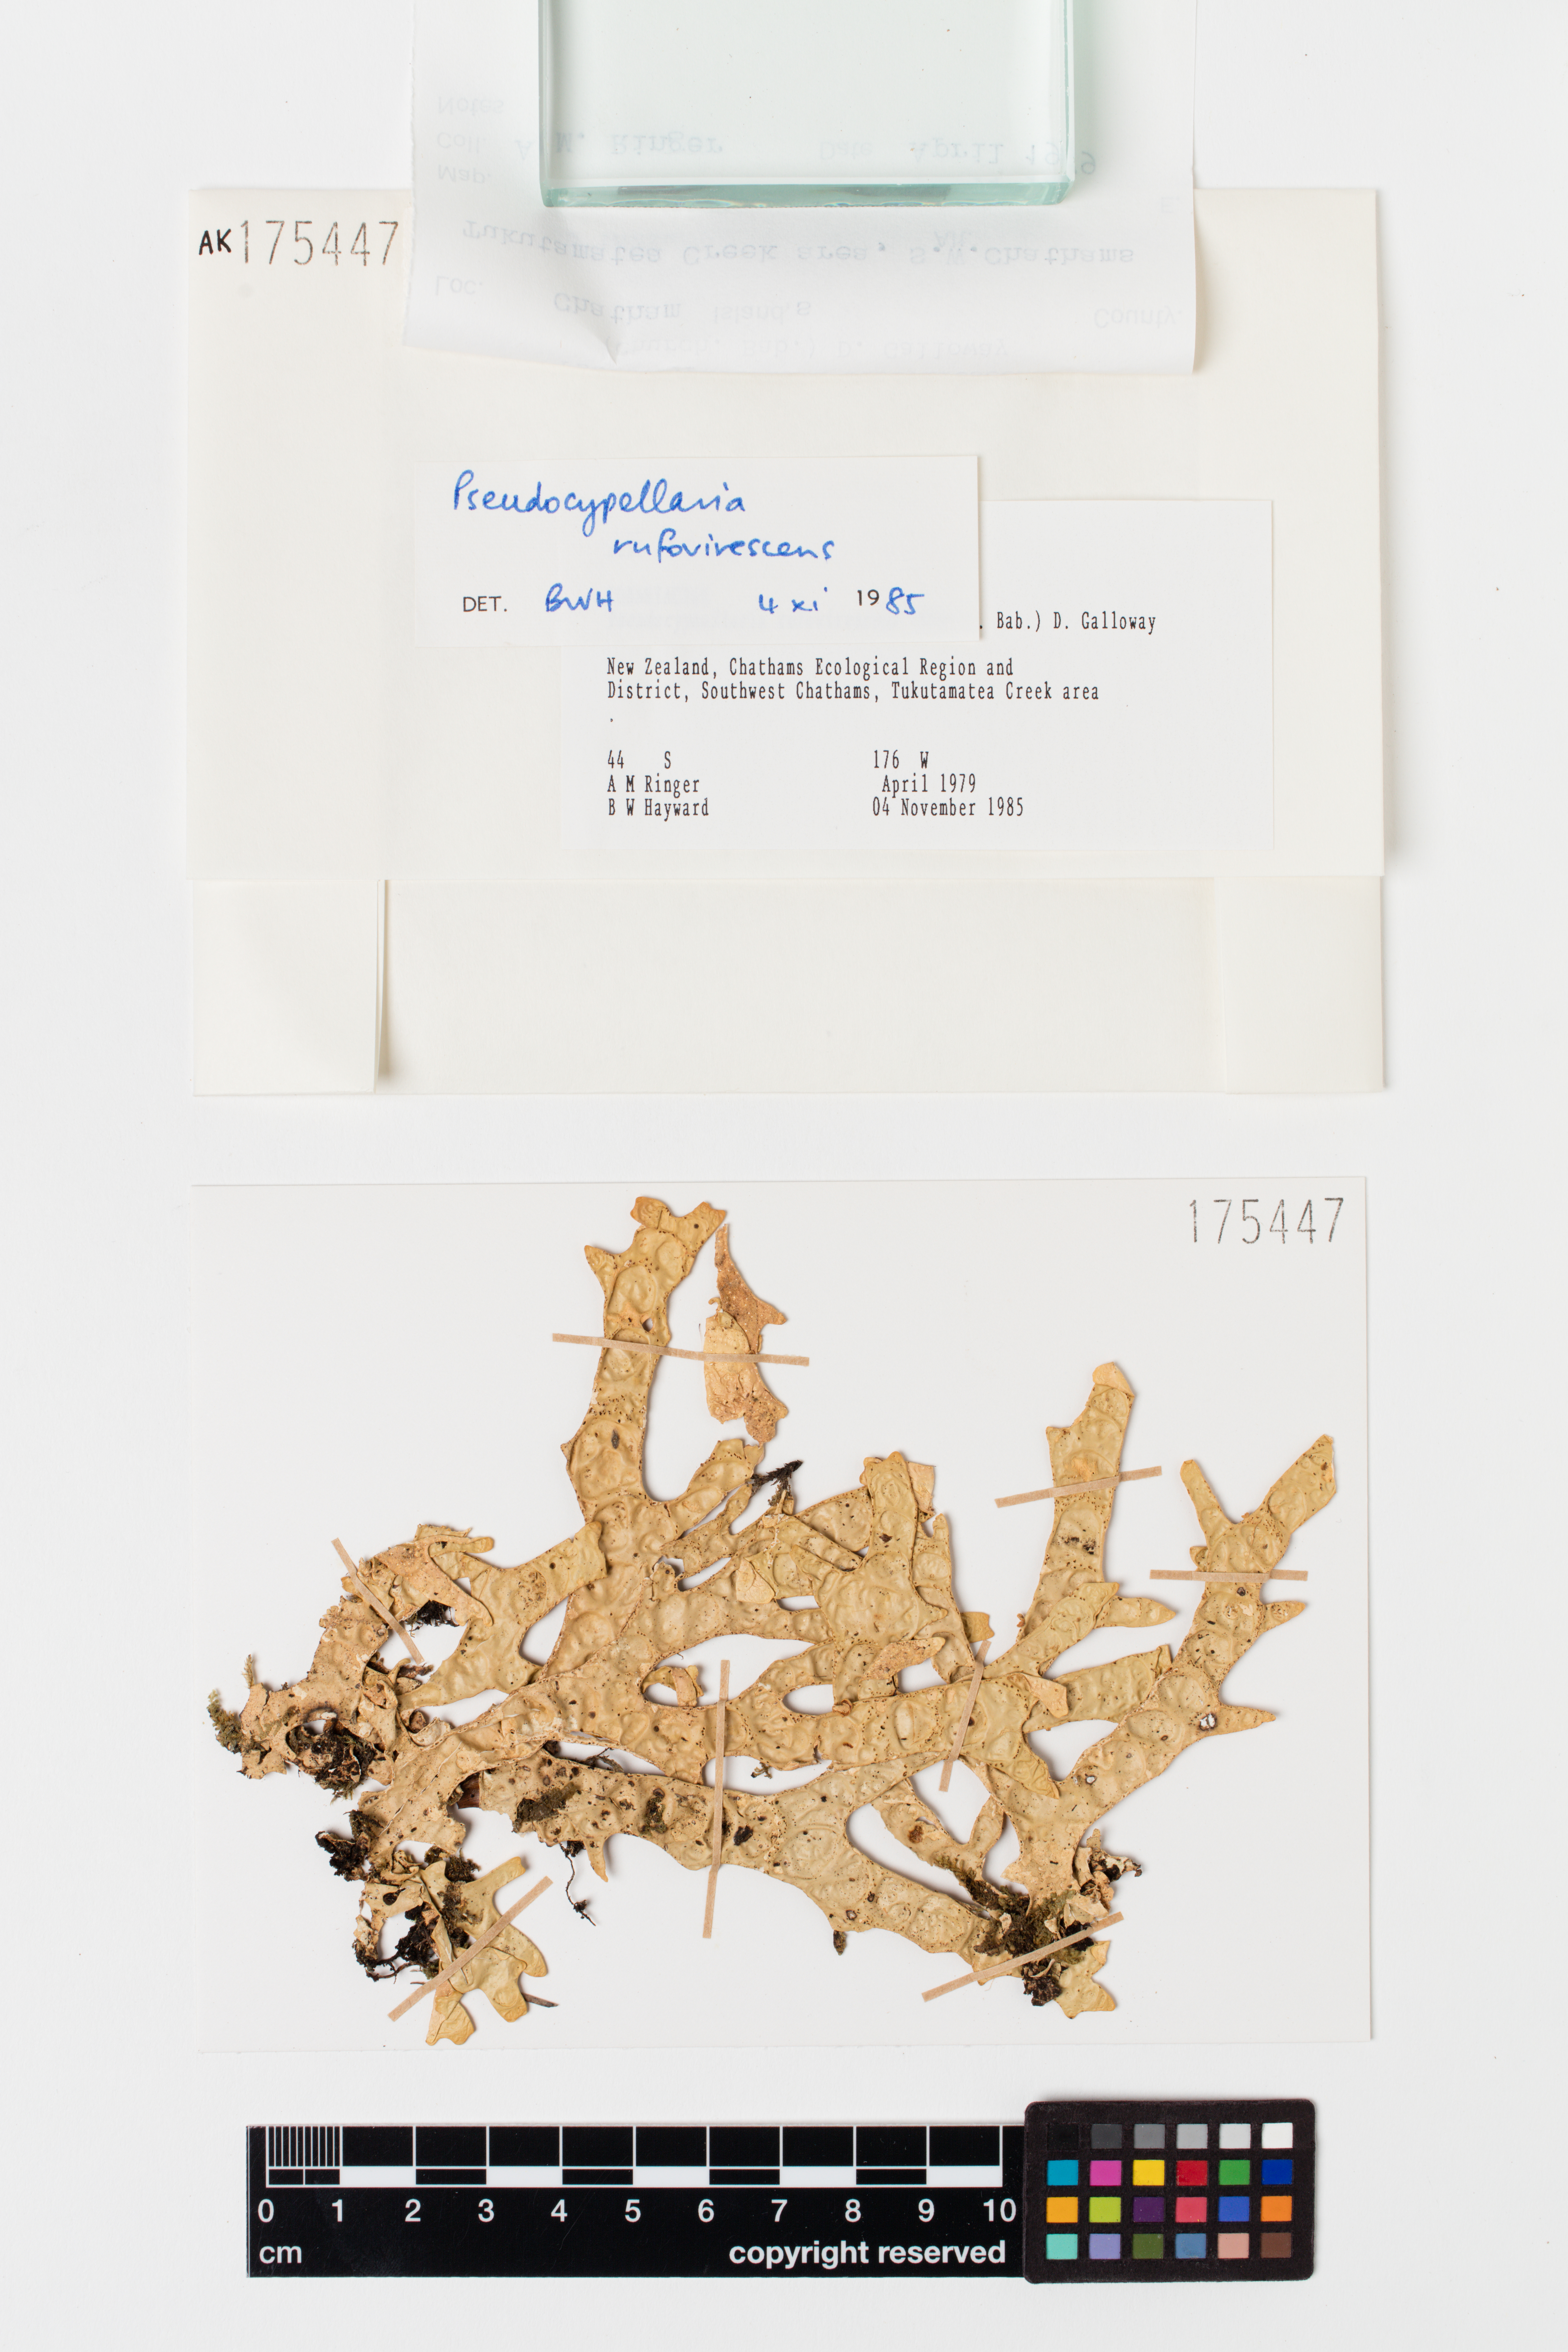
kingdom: Fungi
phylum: Ascomycota
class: Lecanoromycetes
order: Peltigerales
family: Lobariaceae
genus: Pseudocyphellaria
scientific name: Pseudocyphellaria rufovirescens
